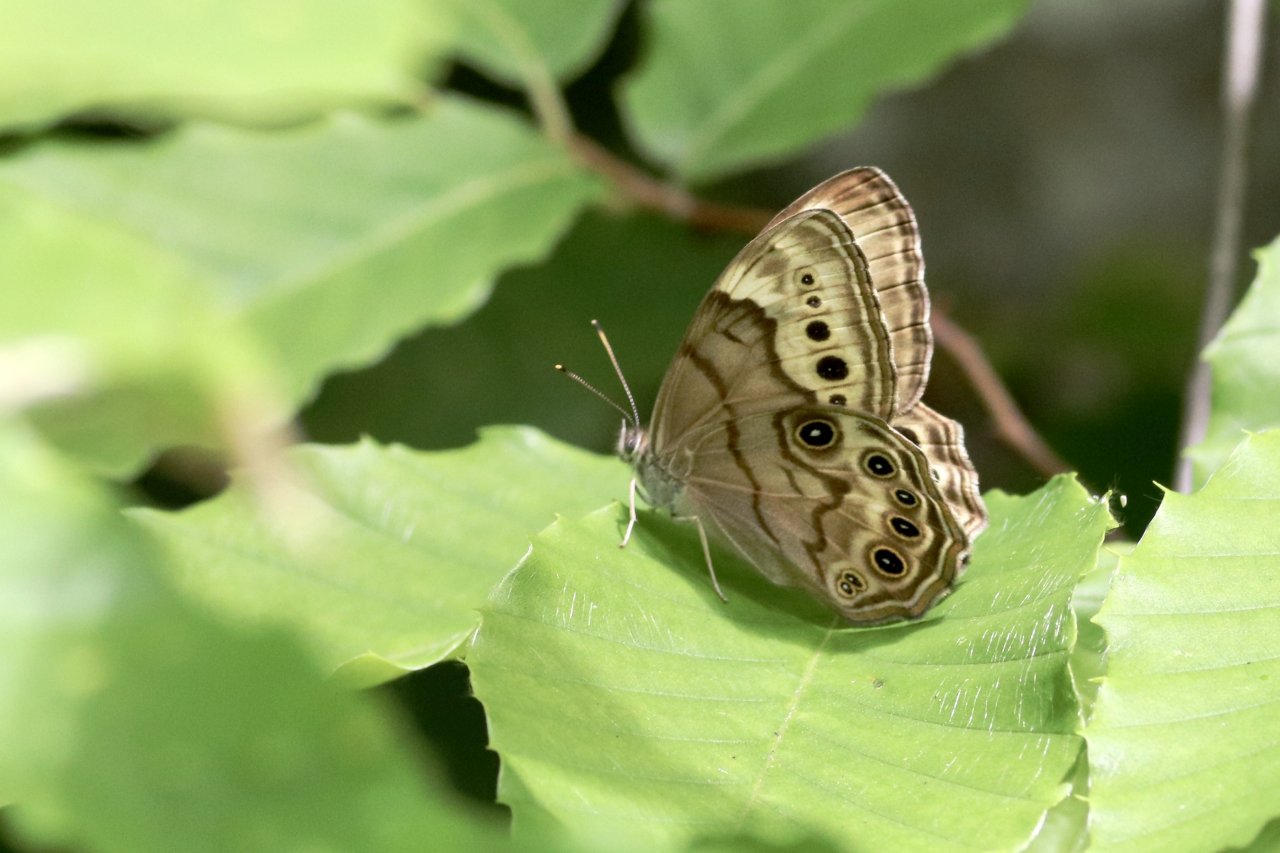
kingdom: Animalia
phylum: Arthropoda
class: Insecta
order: Lepidoptera
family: Nymphalidae
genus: Lethe
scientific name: Lethe anthedon
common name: Northern Pearly-Eye
